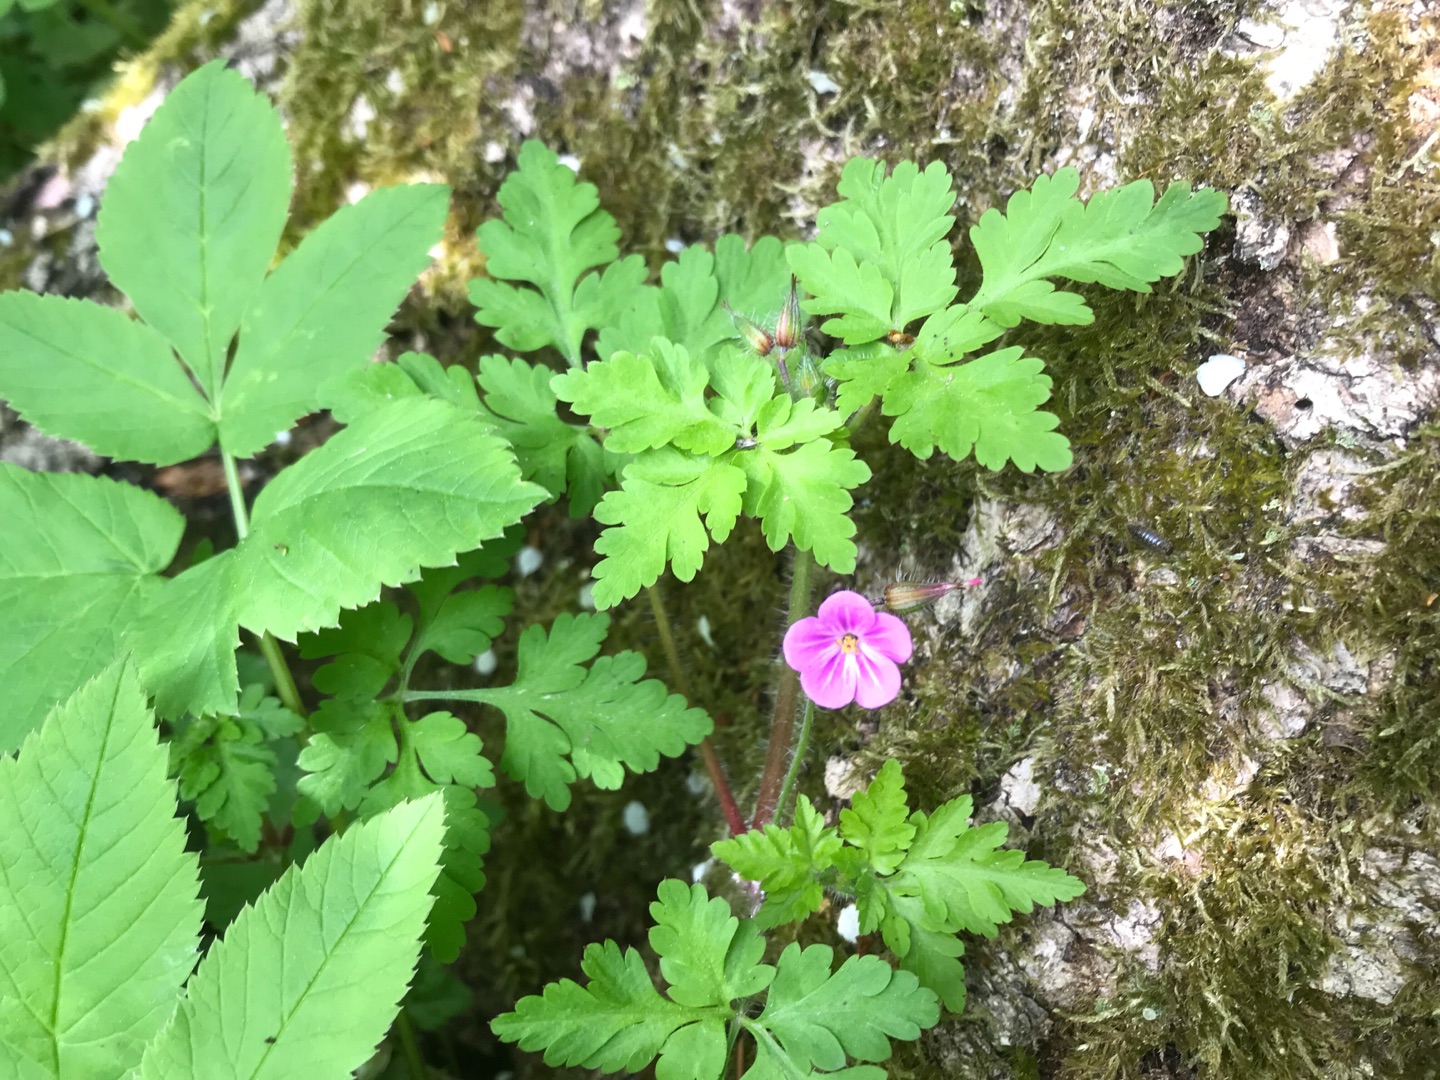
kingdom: Plantae
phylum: Tracheophyta
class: Magnoliopsida
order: Geraniales
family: Geraniaceae
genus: Geranium
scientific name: Geranium robertianum
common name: Stinkende storkenæb
